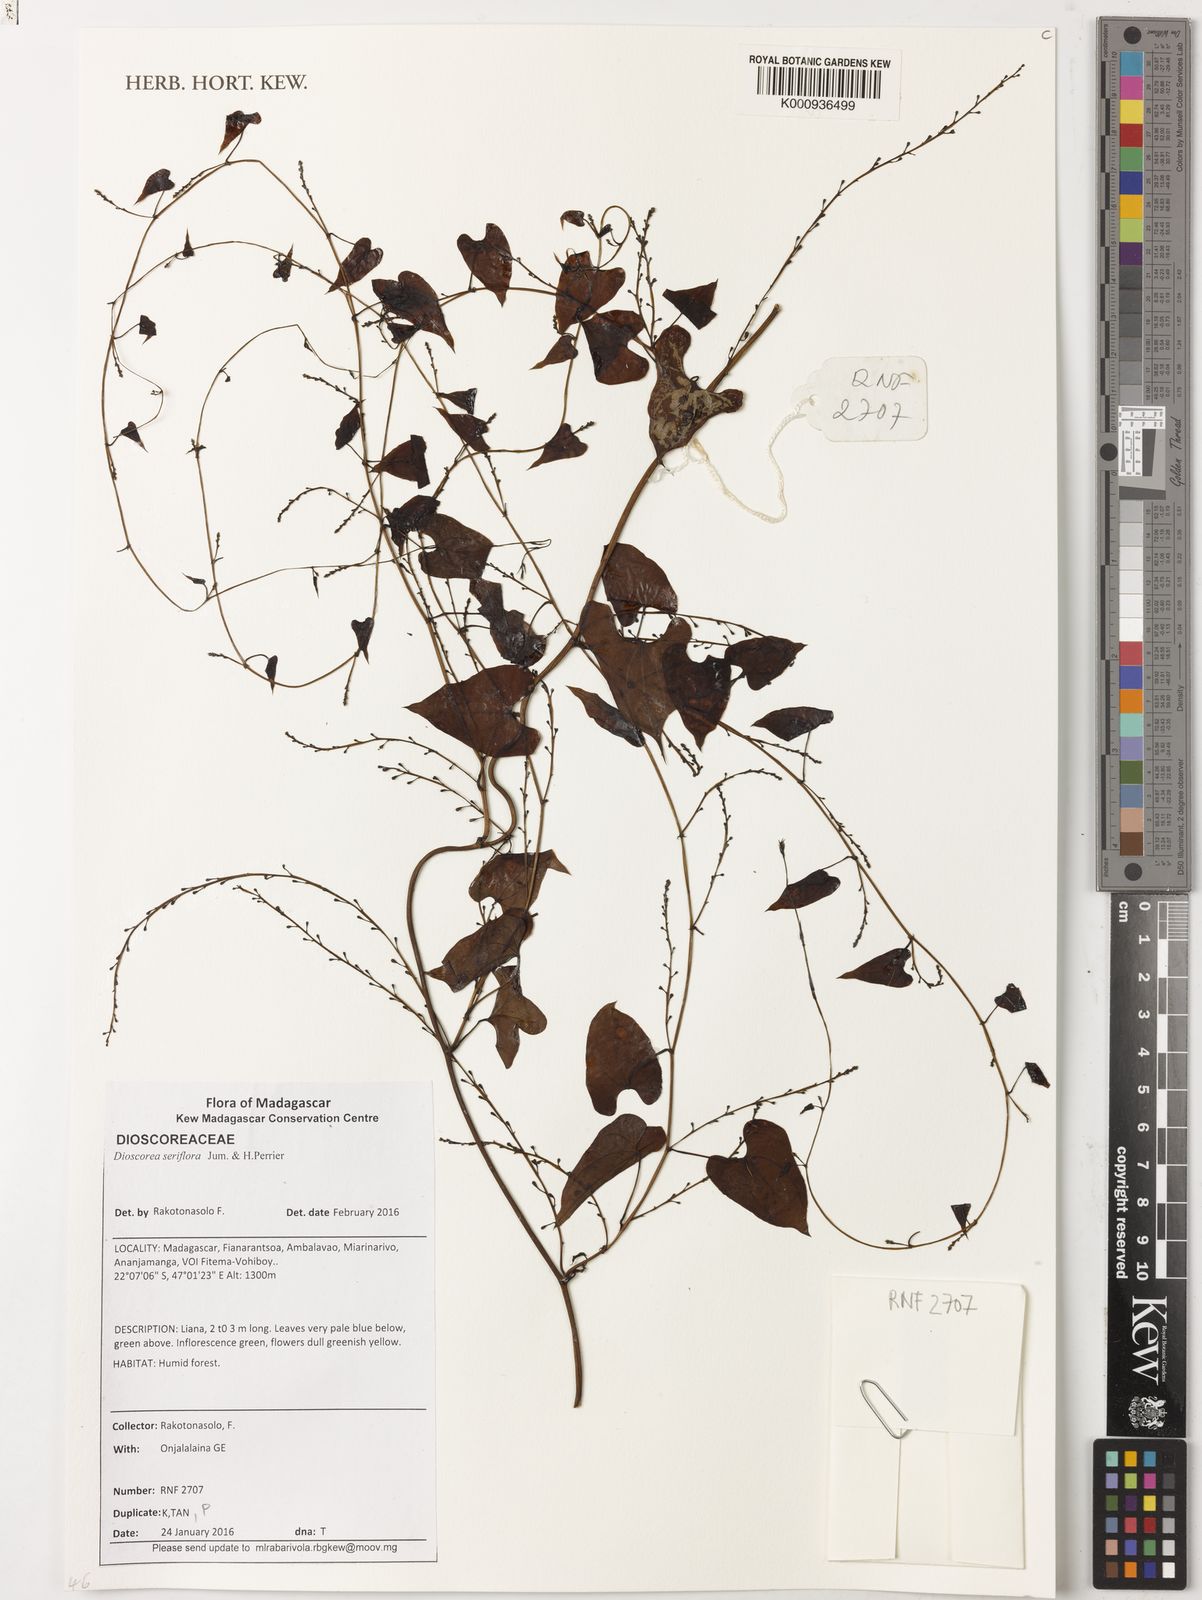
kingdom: Plantae
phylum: Tracheophyta
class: Liliopsida
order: Dioscoreales
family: Dioscoreaceae
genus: Dioscorea
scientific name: Dioscorea seriflora
